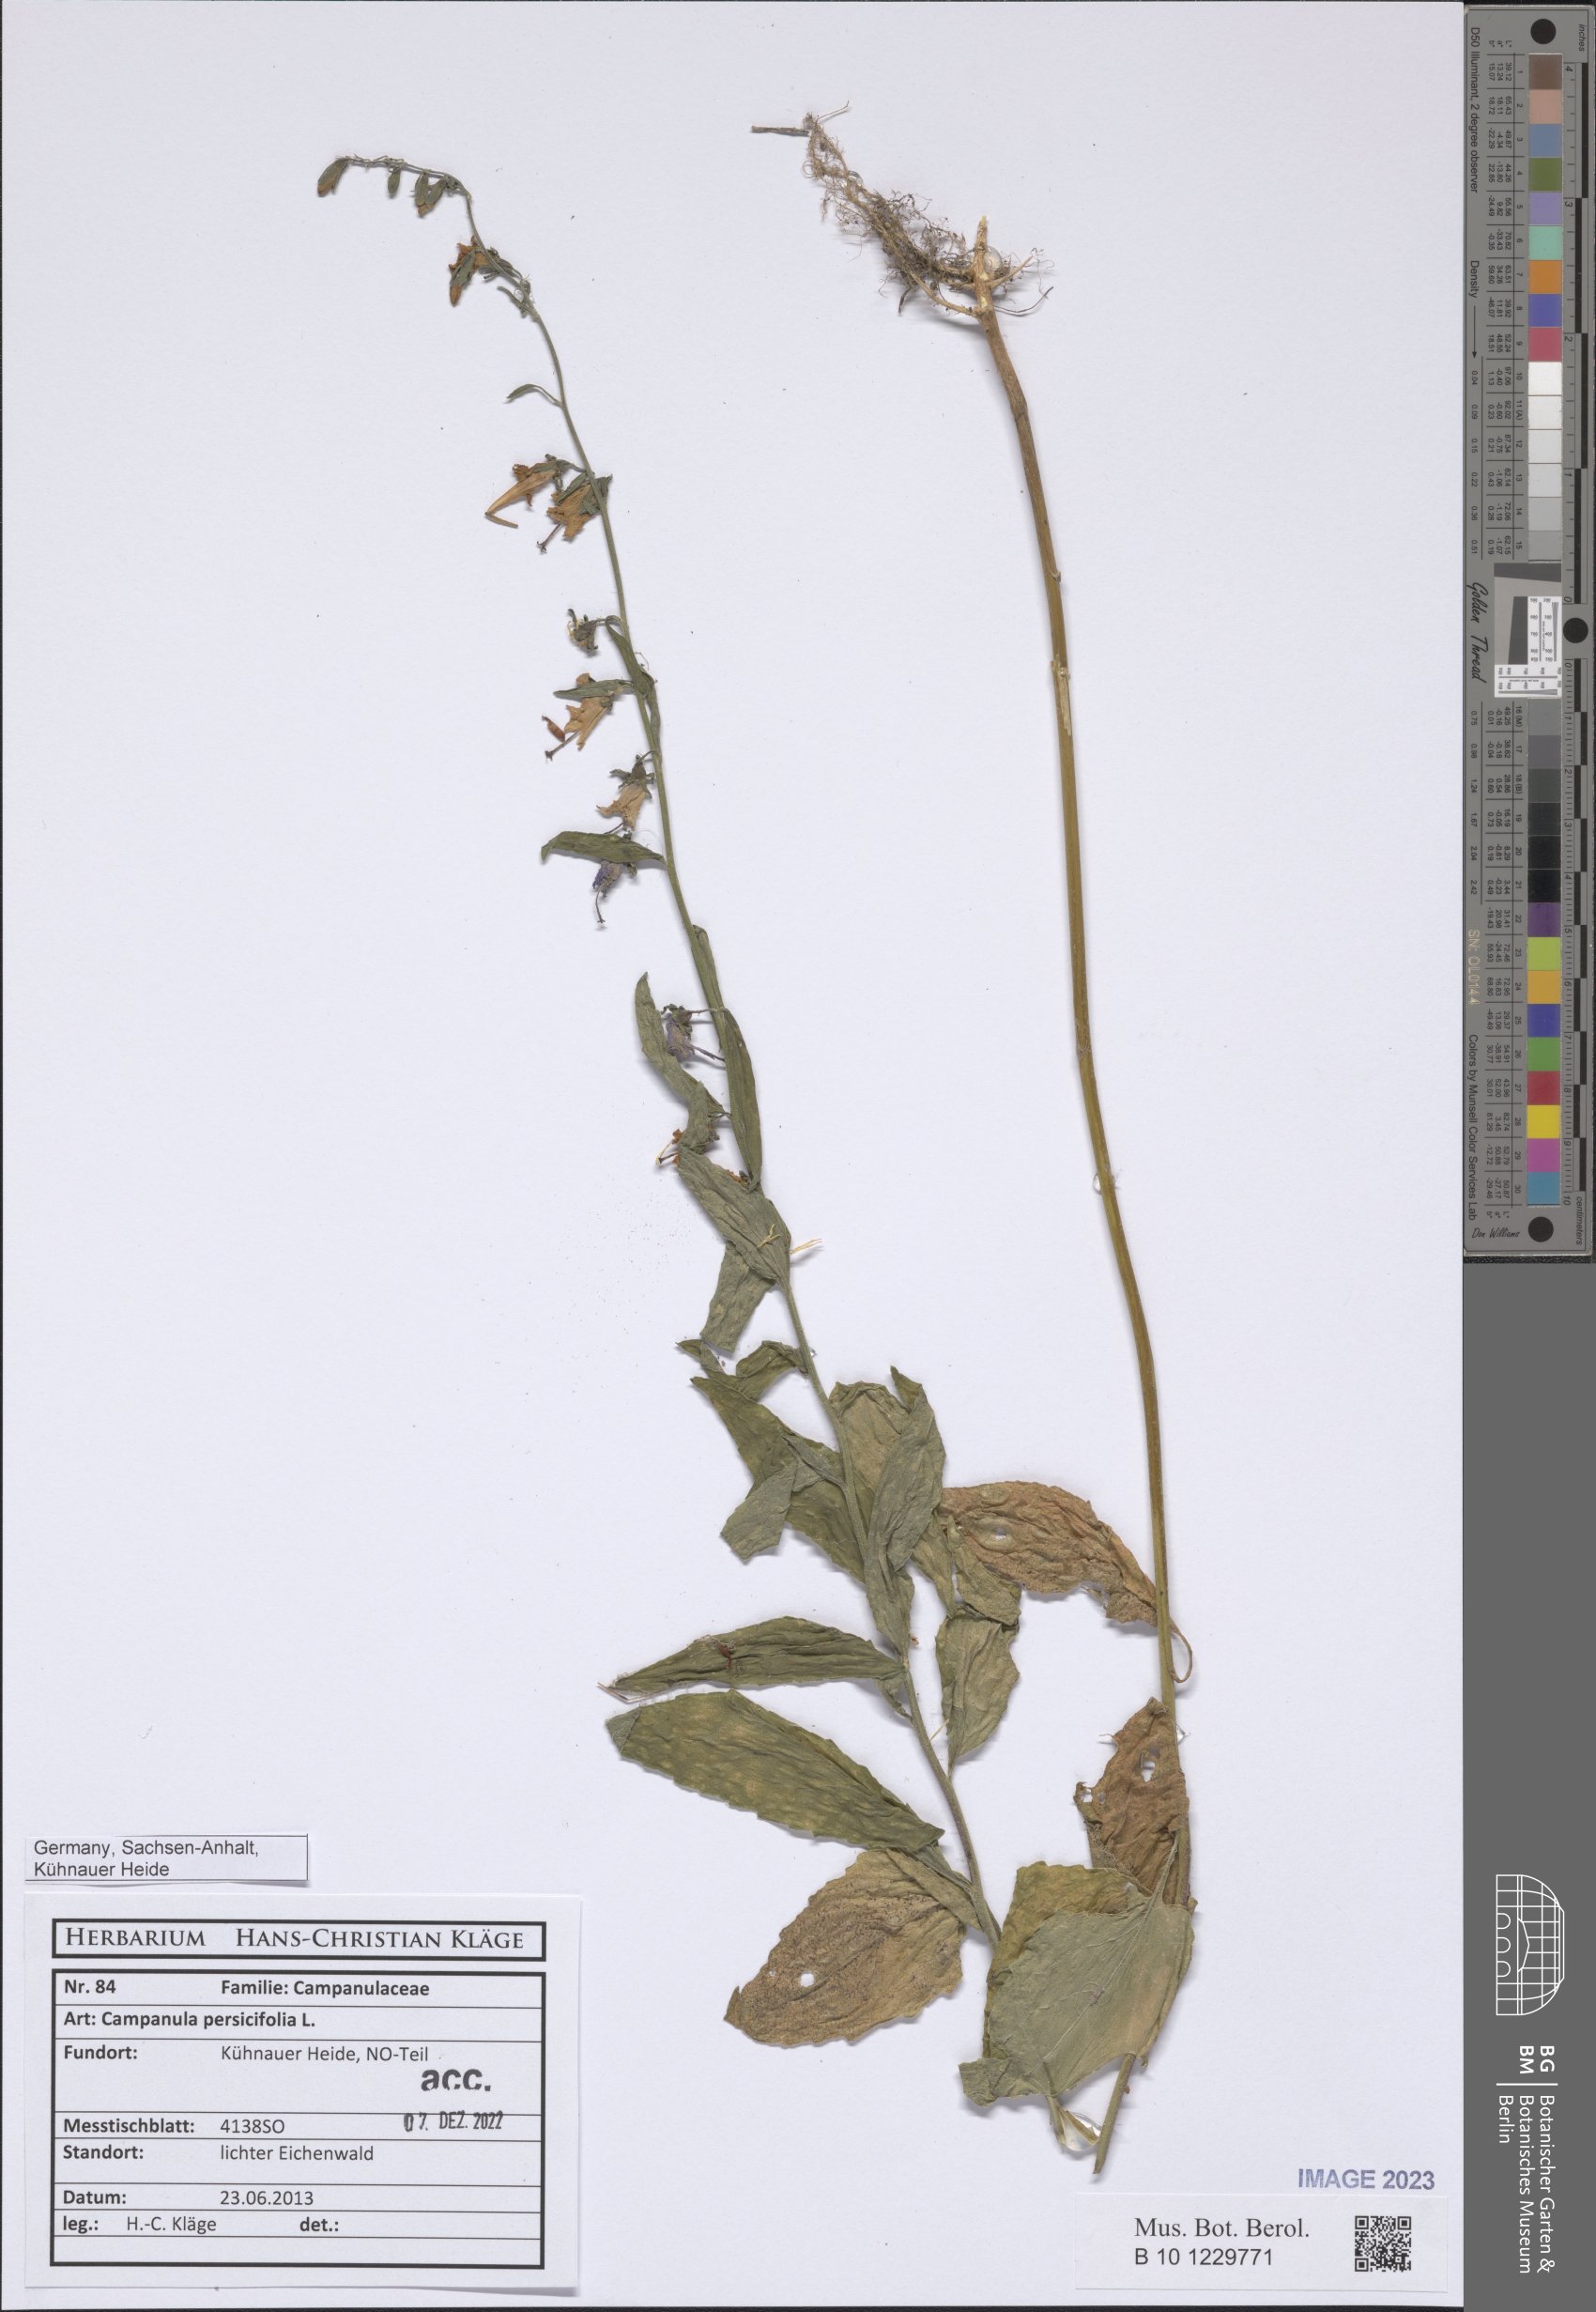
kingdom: Plantae
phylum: Tracheophyta
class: Magnoliopsida
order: Asterales
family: Campanulaceae
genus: Campanula
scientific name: Campanula persicifolia
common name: Peach-leaved bellflower
